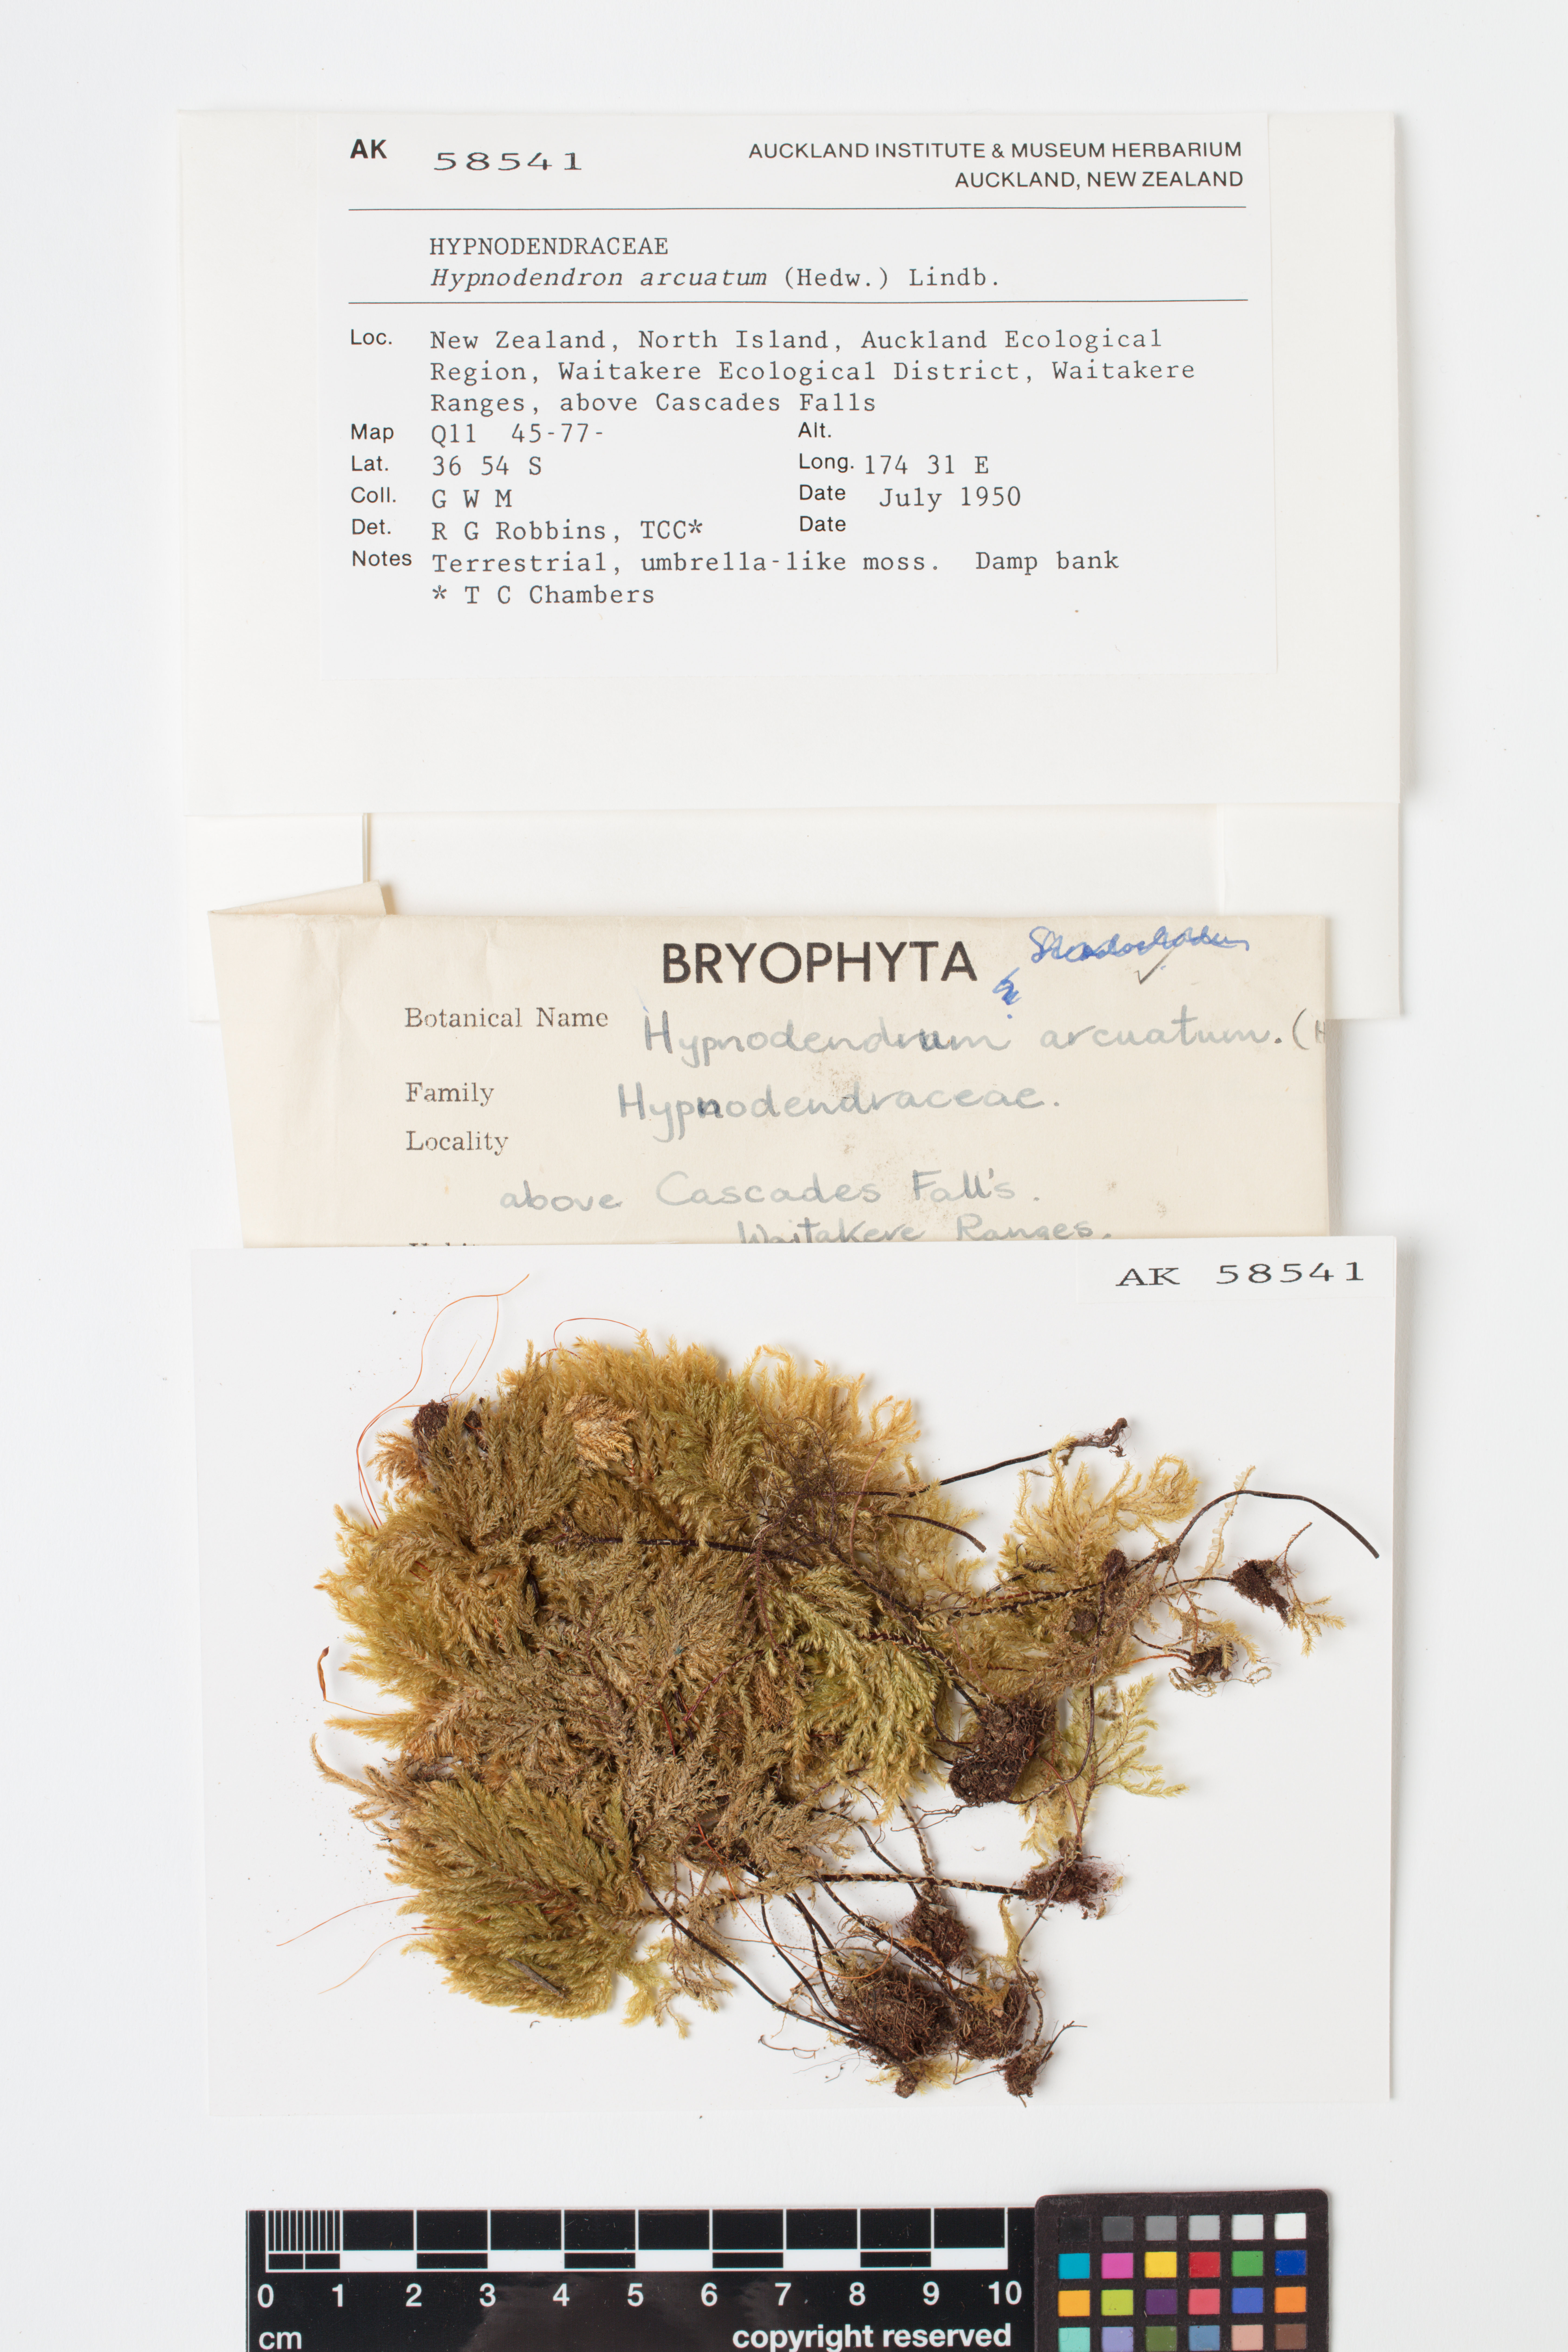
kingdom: Plantae
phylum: Bryophyta
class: Bryopsida
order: Hypnodendrales
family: Spiridentaceae
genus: Hypnodendron
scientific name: Hypnodendron arcuatum
